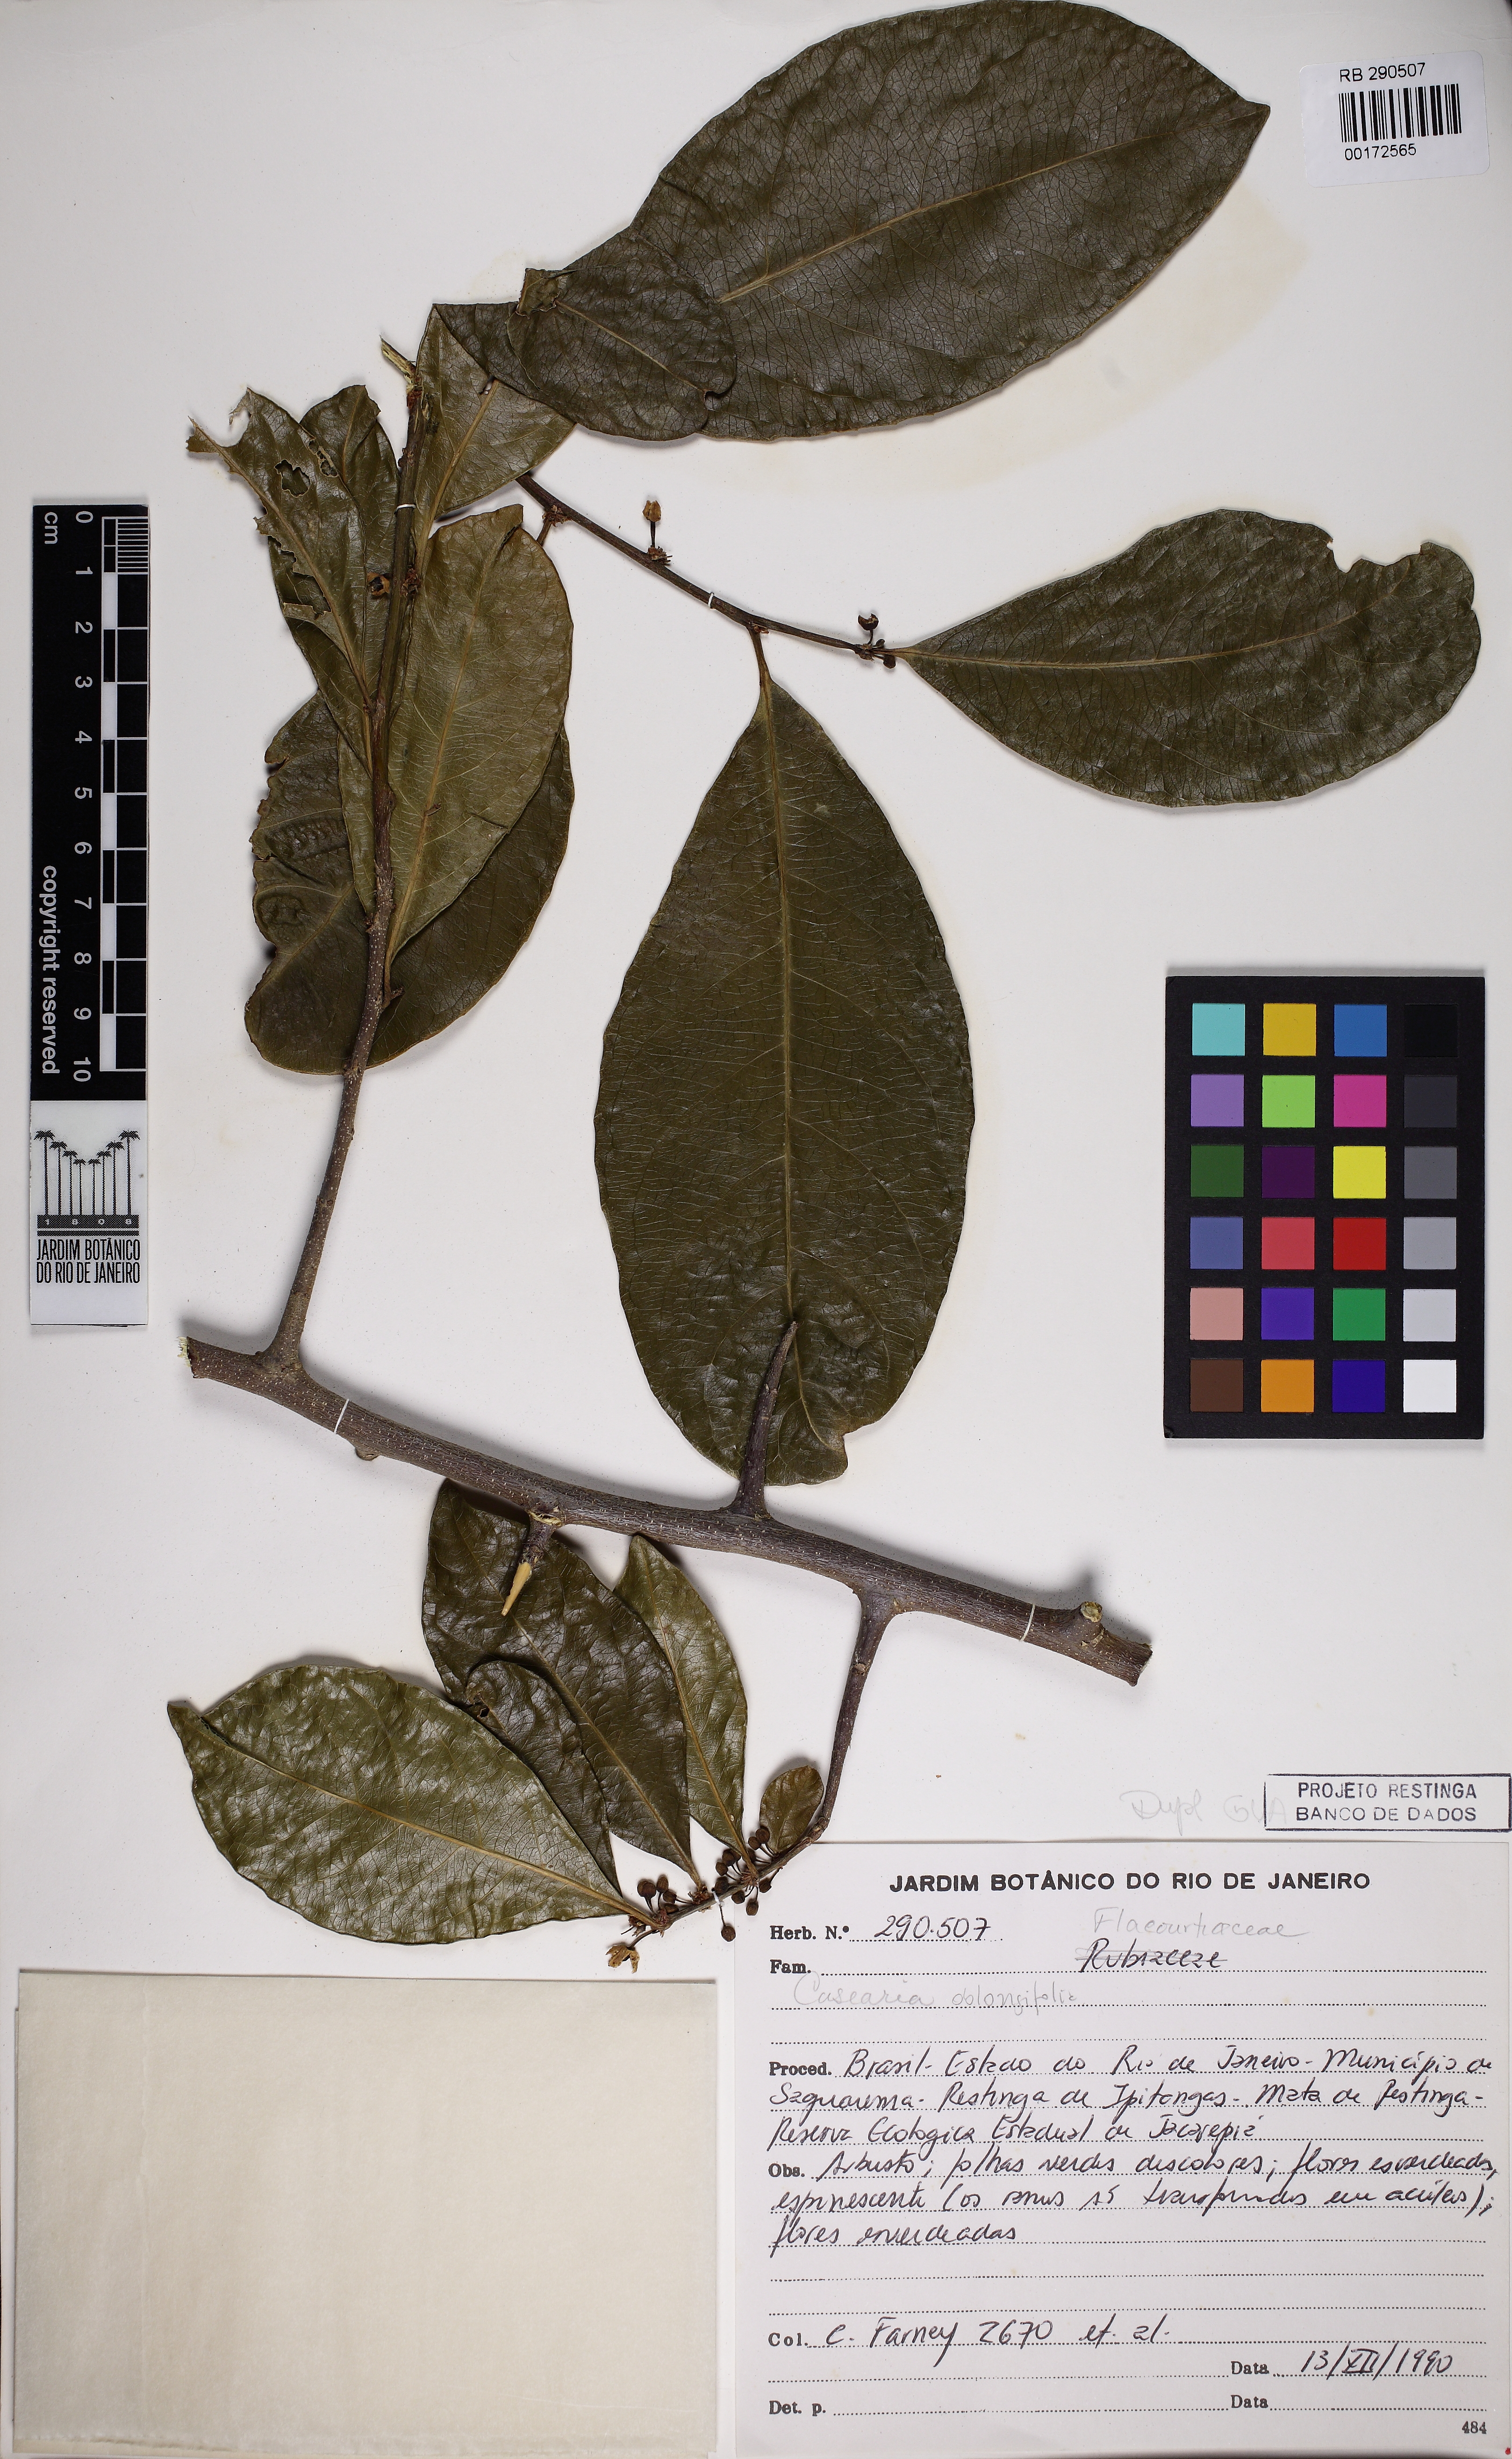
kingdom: Plantae
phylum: Tracheophyta
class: Magnoliopsida
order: Malpighiales
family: Salicaceae
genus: Casearia
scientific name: Casearia oblongifolia
